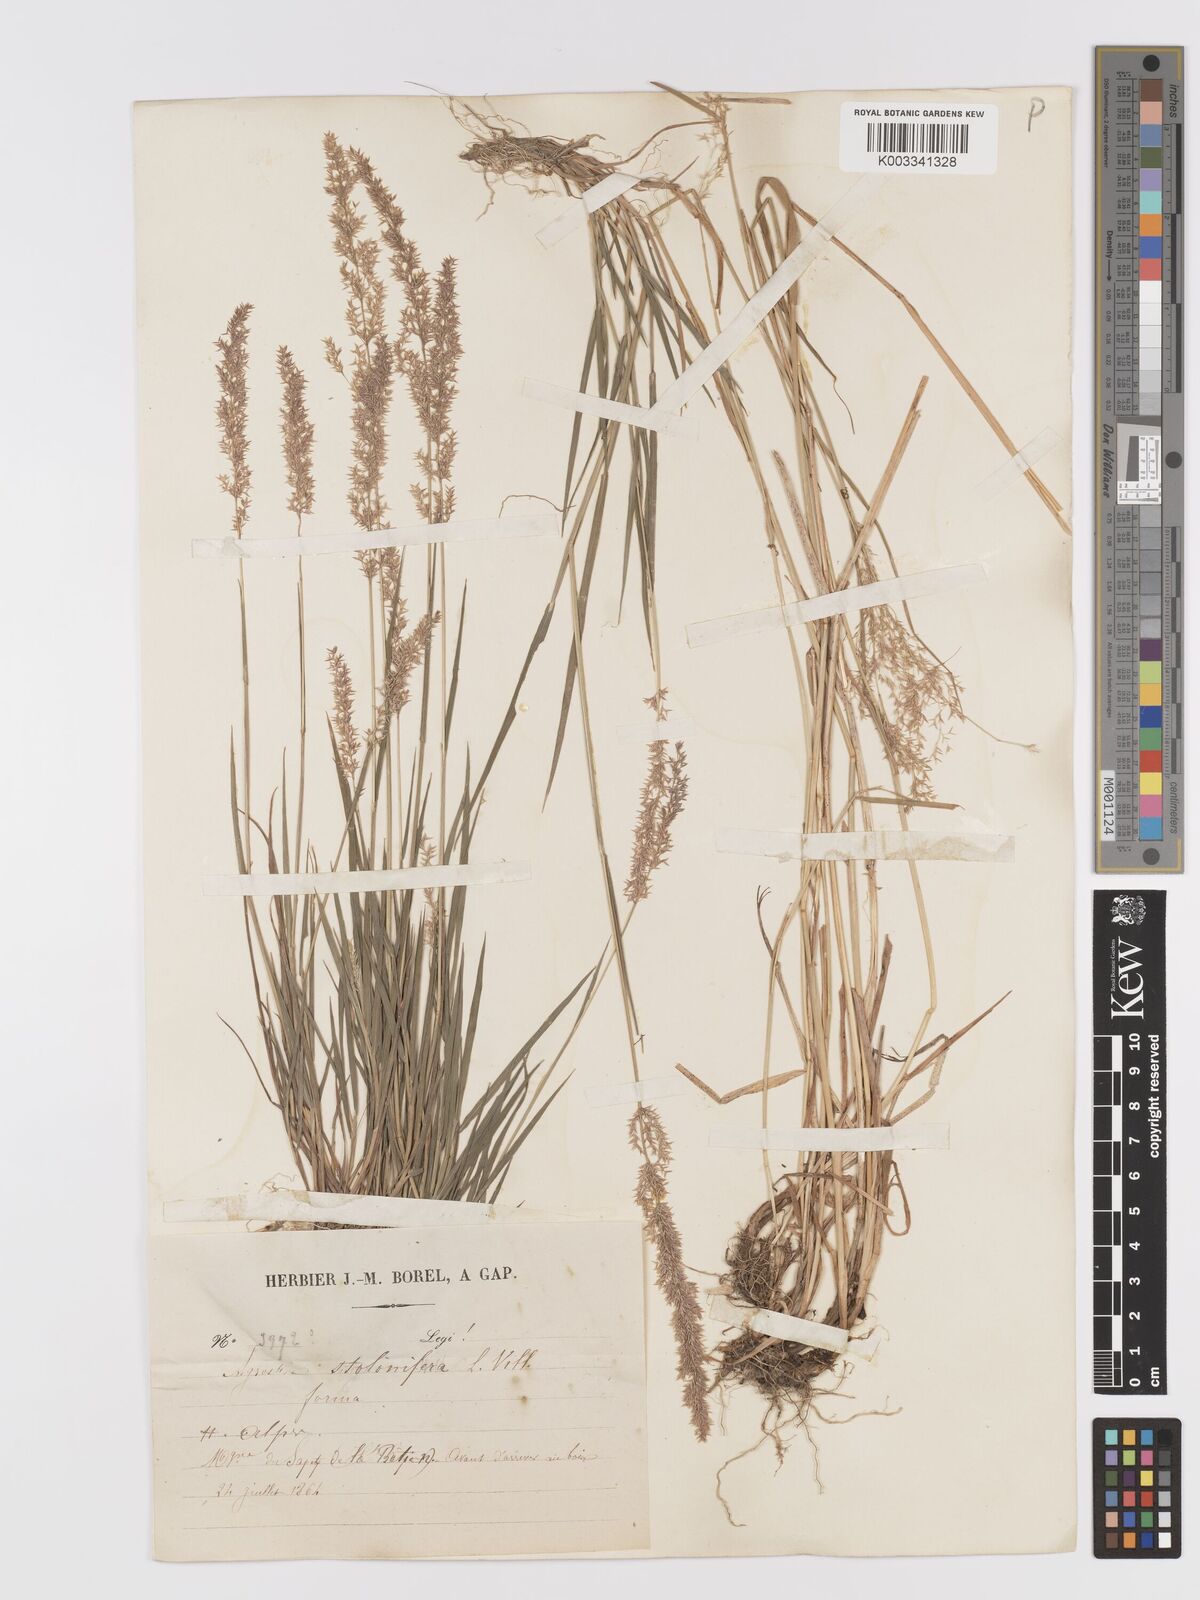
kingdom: Plantae
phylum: Tracheophyta
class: Liliopsida
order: Poales
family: Poaceae
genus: Agrostis
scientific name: Agrostis gigantea
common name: Black bent
